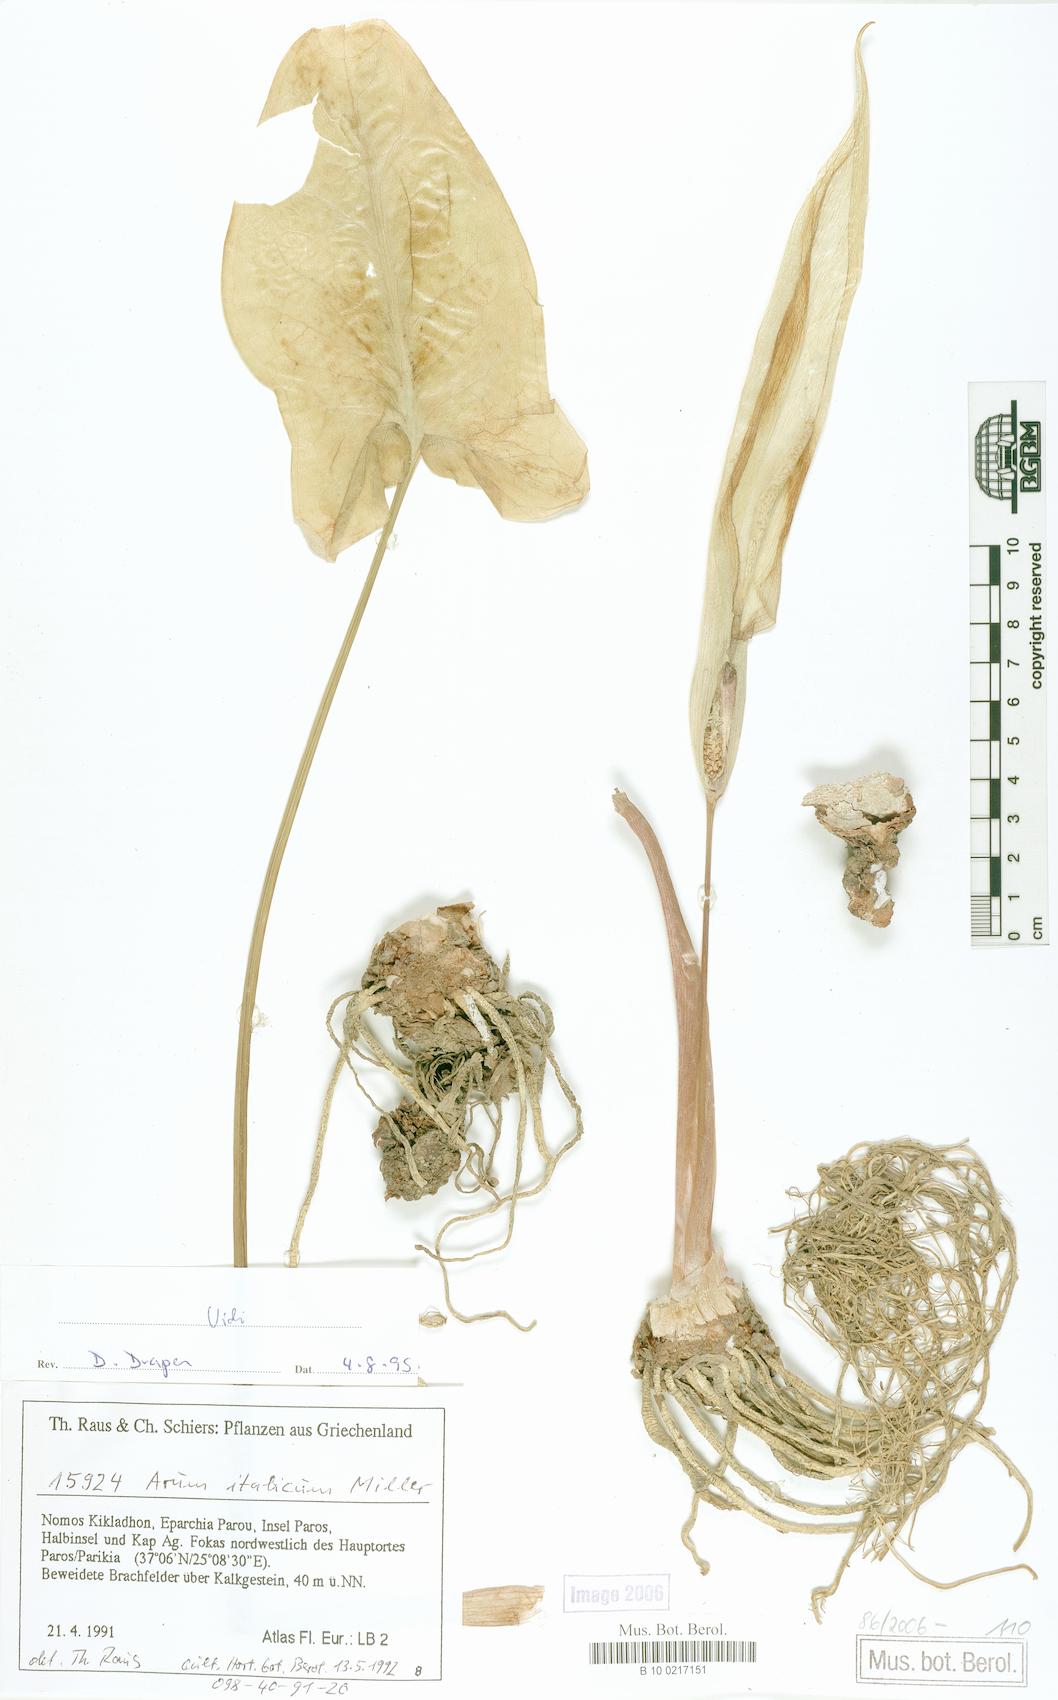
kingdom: Plantae
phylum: Tracheophyta
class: Liliopsida
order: Alismatales
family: Araceae
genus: Arum
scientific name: Arum italicum
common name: Italian lords-and-ladies
